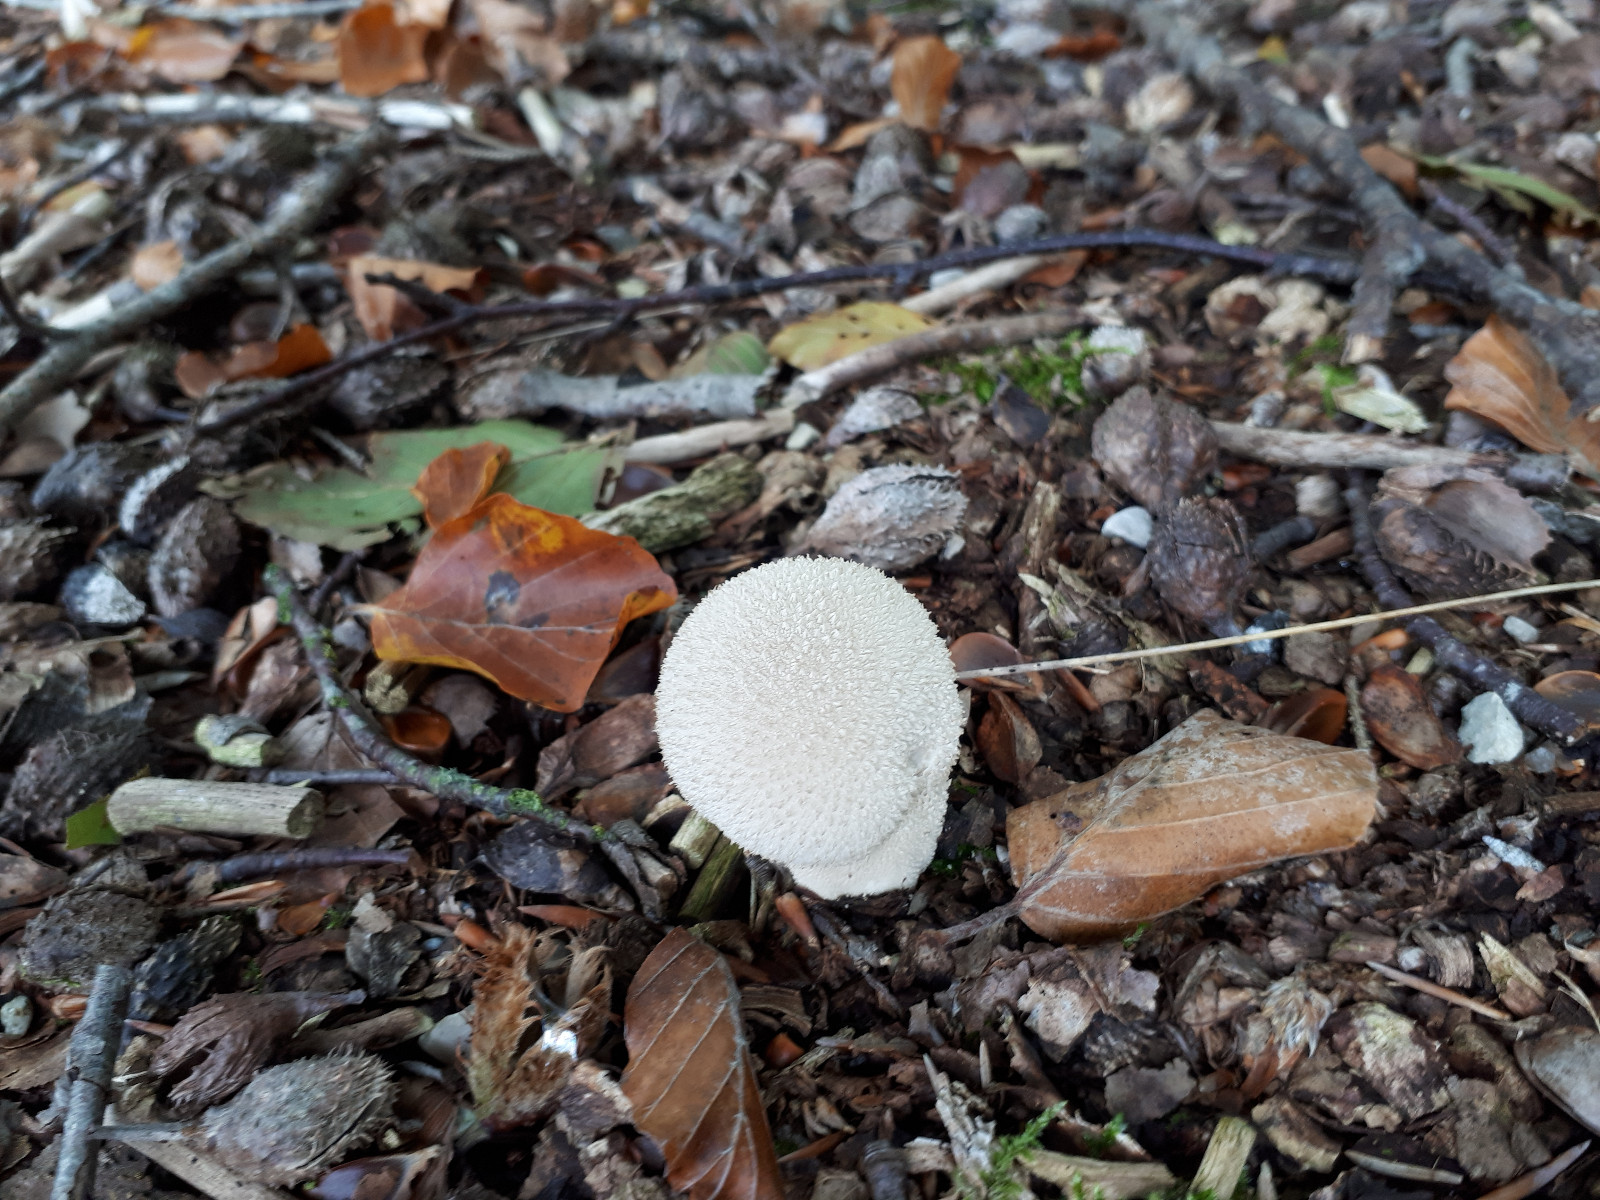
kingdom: Fungi
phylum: Basidiomycota
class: Agaricomycetes
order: Agaricales
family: Lycoperdaceae
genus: Lycoperdon
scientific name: Lycoperdon perlatum
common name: krystal-støvbold
